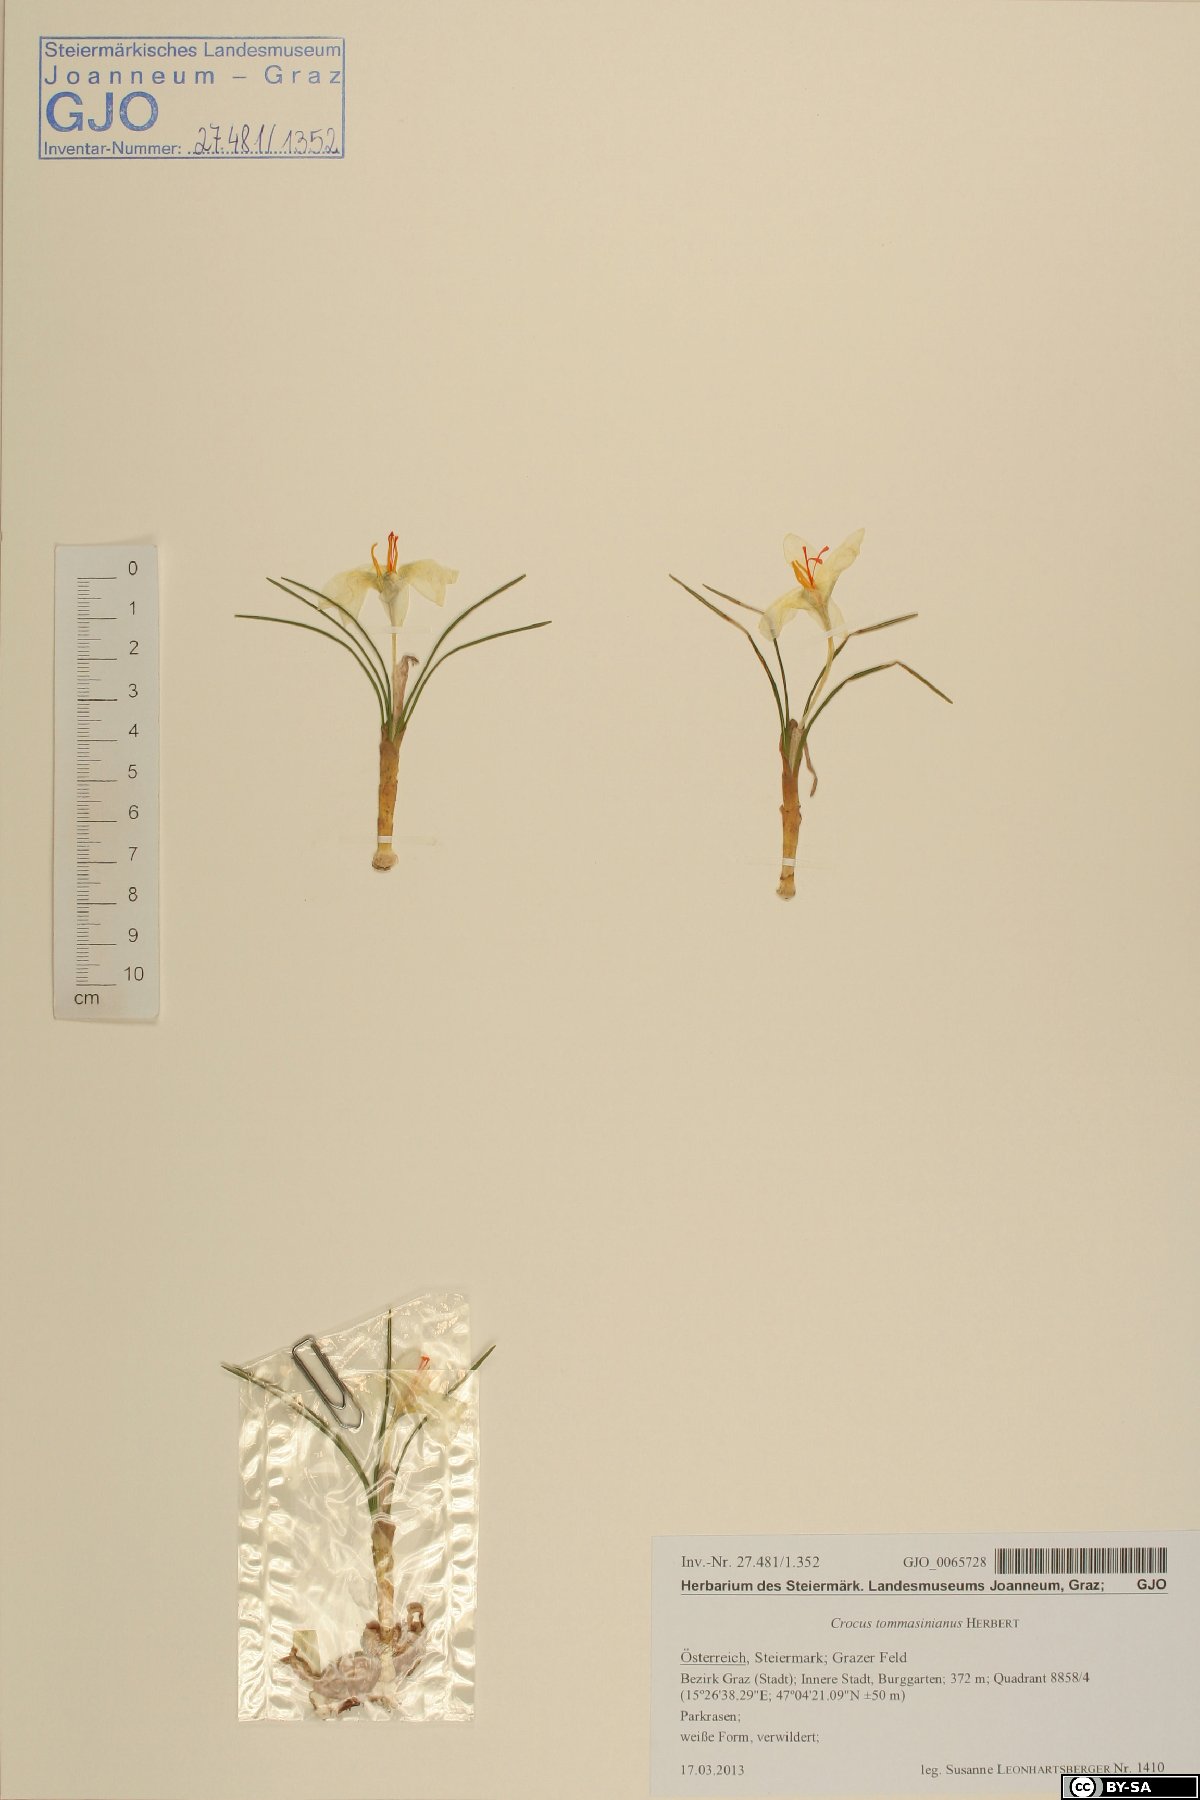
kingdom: Plantae
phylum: Tracheophyta
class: Liliopsida
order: Asparagales
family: Iridaceae
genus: Crocus
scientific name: Crocus tommasinianus
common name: Early crocus
